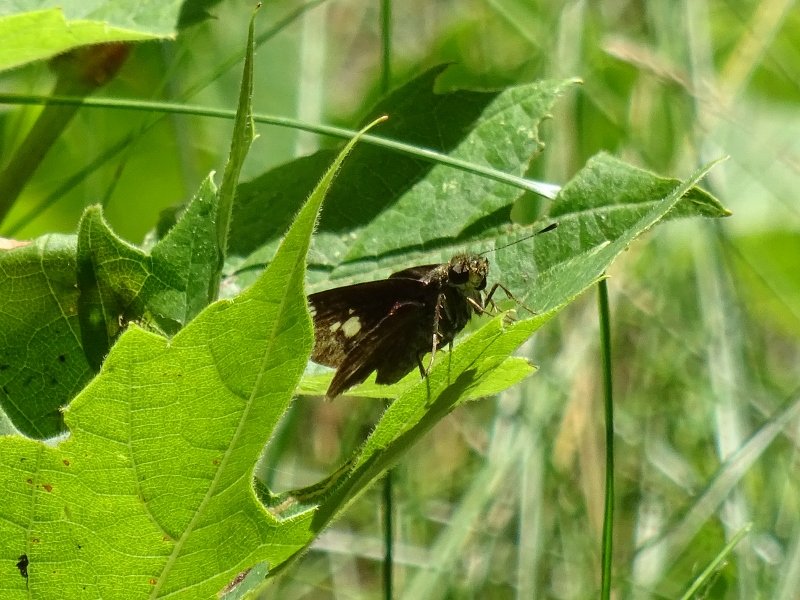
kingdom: Animalia
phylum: Arthropoda
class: Insecta
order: Lepidoptera
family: Hesperiidae
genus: Vernia
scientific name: Vernia verna
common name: Little Glassywing
